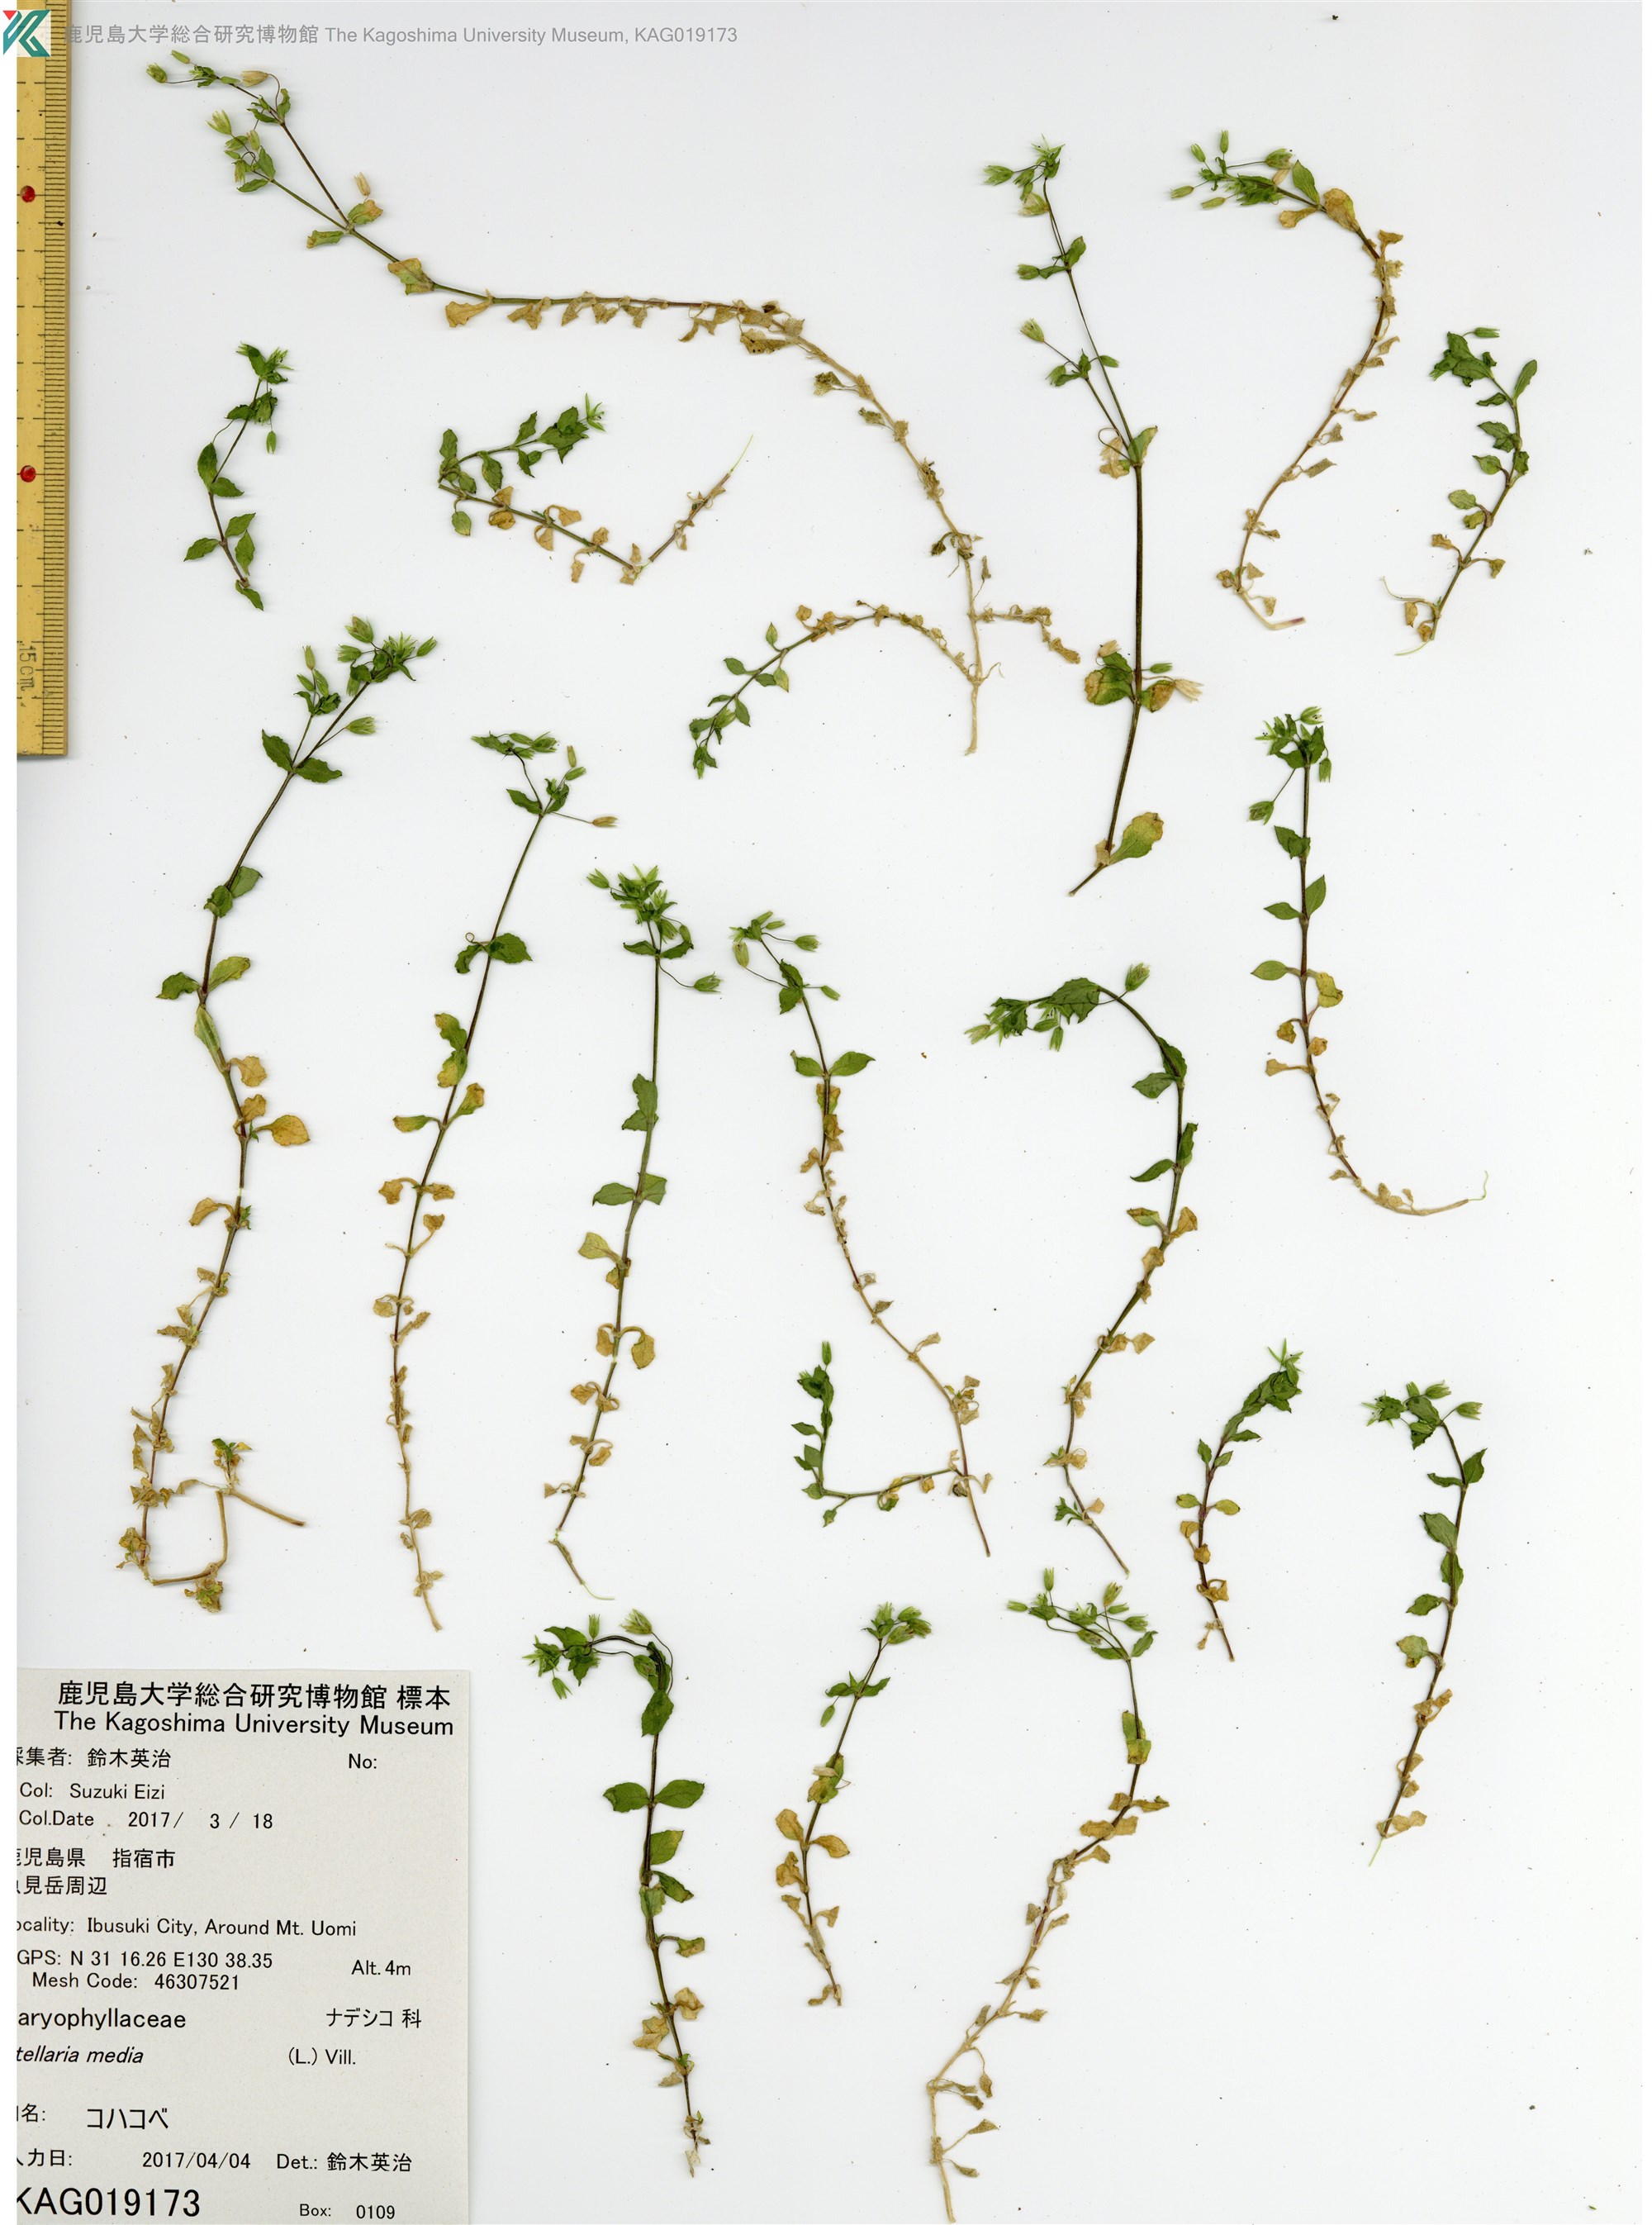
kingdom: Plantae
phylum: Tracheophyta
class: Magnoliopsida
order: Caryophyllales
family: Caryophyllaceae
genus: Stellaria
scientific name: Stellaria media
